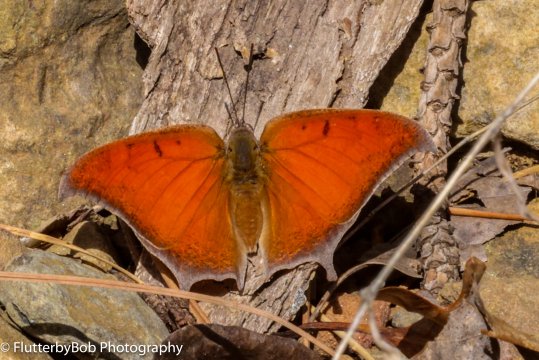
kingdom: Animalia
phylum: Arthropoda
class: Insecta
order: Lepidoptera
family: Nymphalidae
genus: Anaea
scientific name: Anaea andria
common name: Goatweed Leafwing
